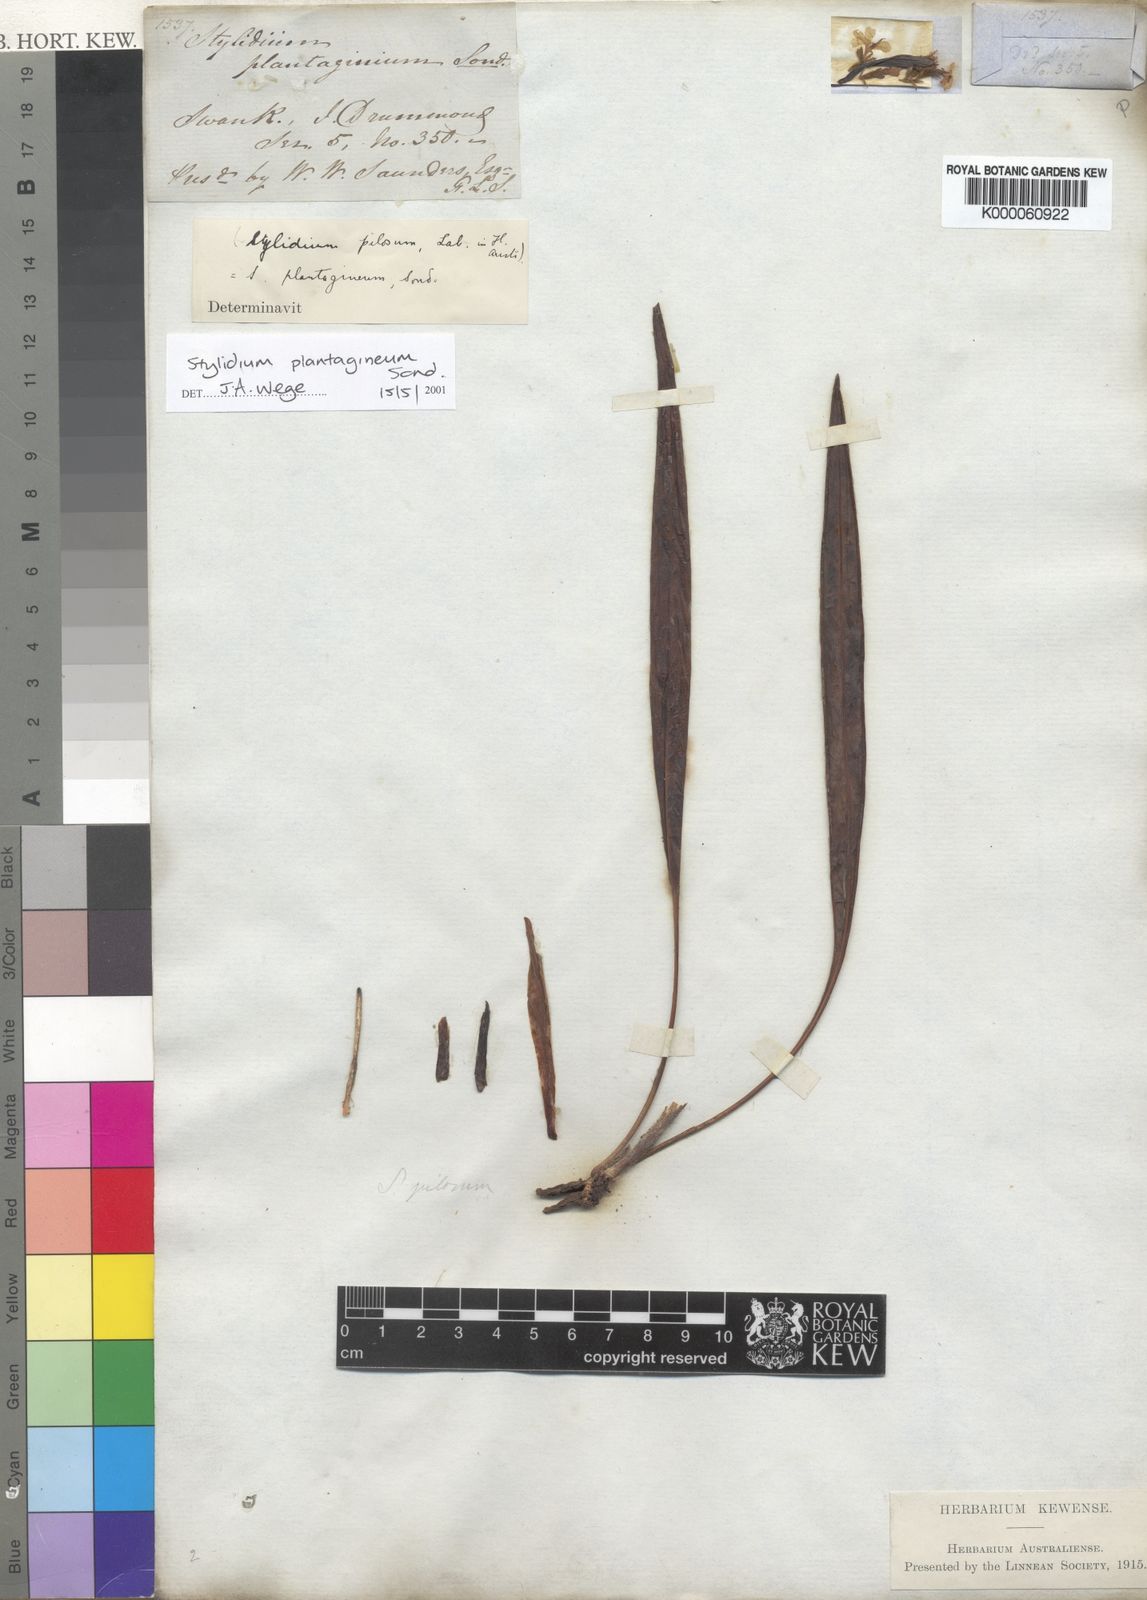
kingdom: Plantae
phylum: Tracheophyta
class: Magnoliopsida
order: Asterales
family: Stylidiaceae
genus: Stylidium
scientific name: Stylidium plantagineum
